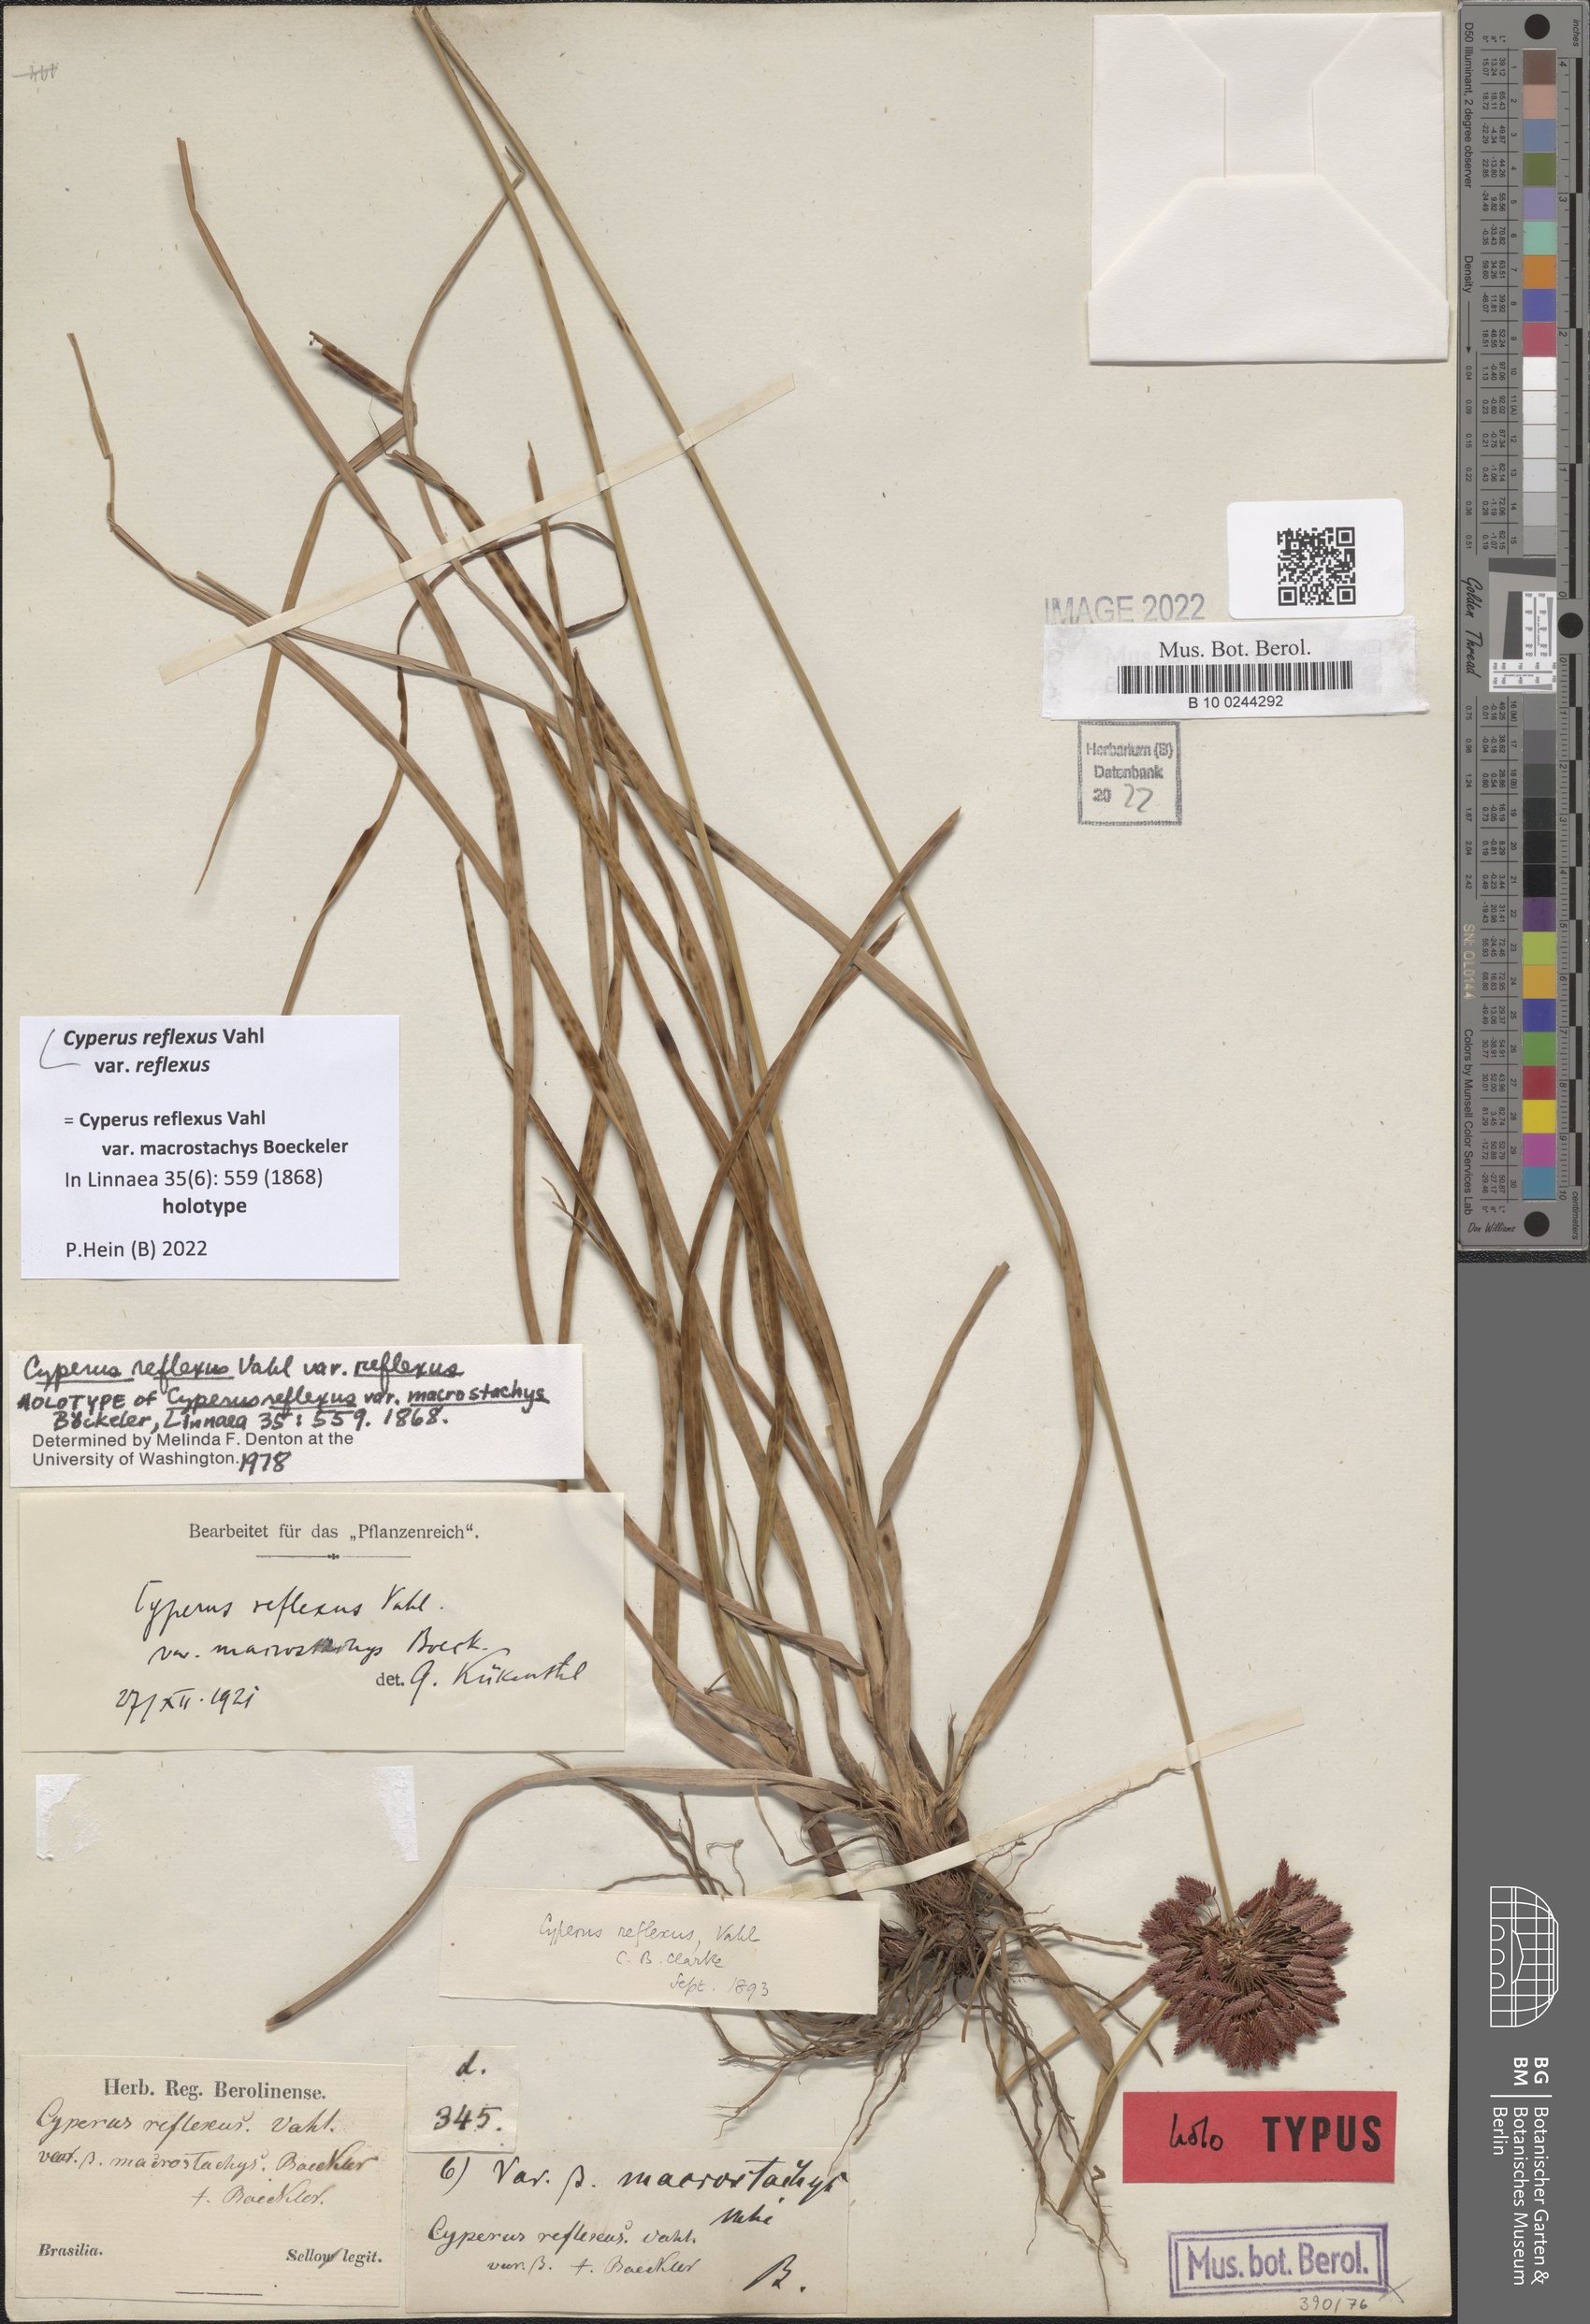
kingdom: Plantae
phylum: Tracheophyta
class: Liliopsida
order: Poales
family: Cyperaceae
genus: Cyperus
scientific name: Cyperus reflexus
